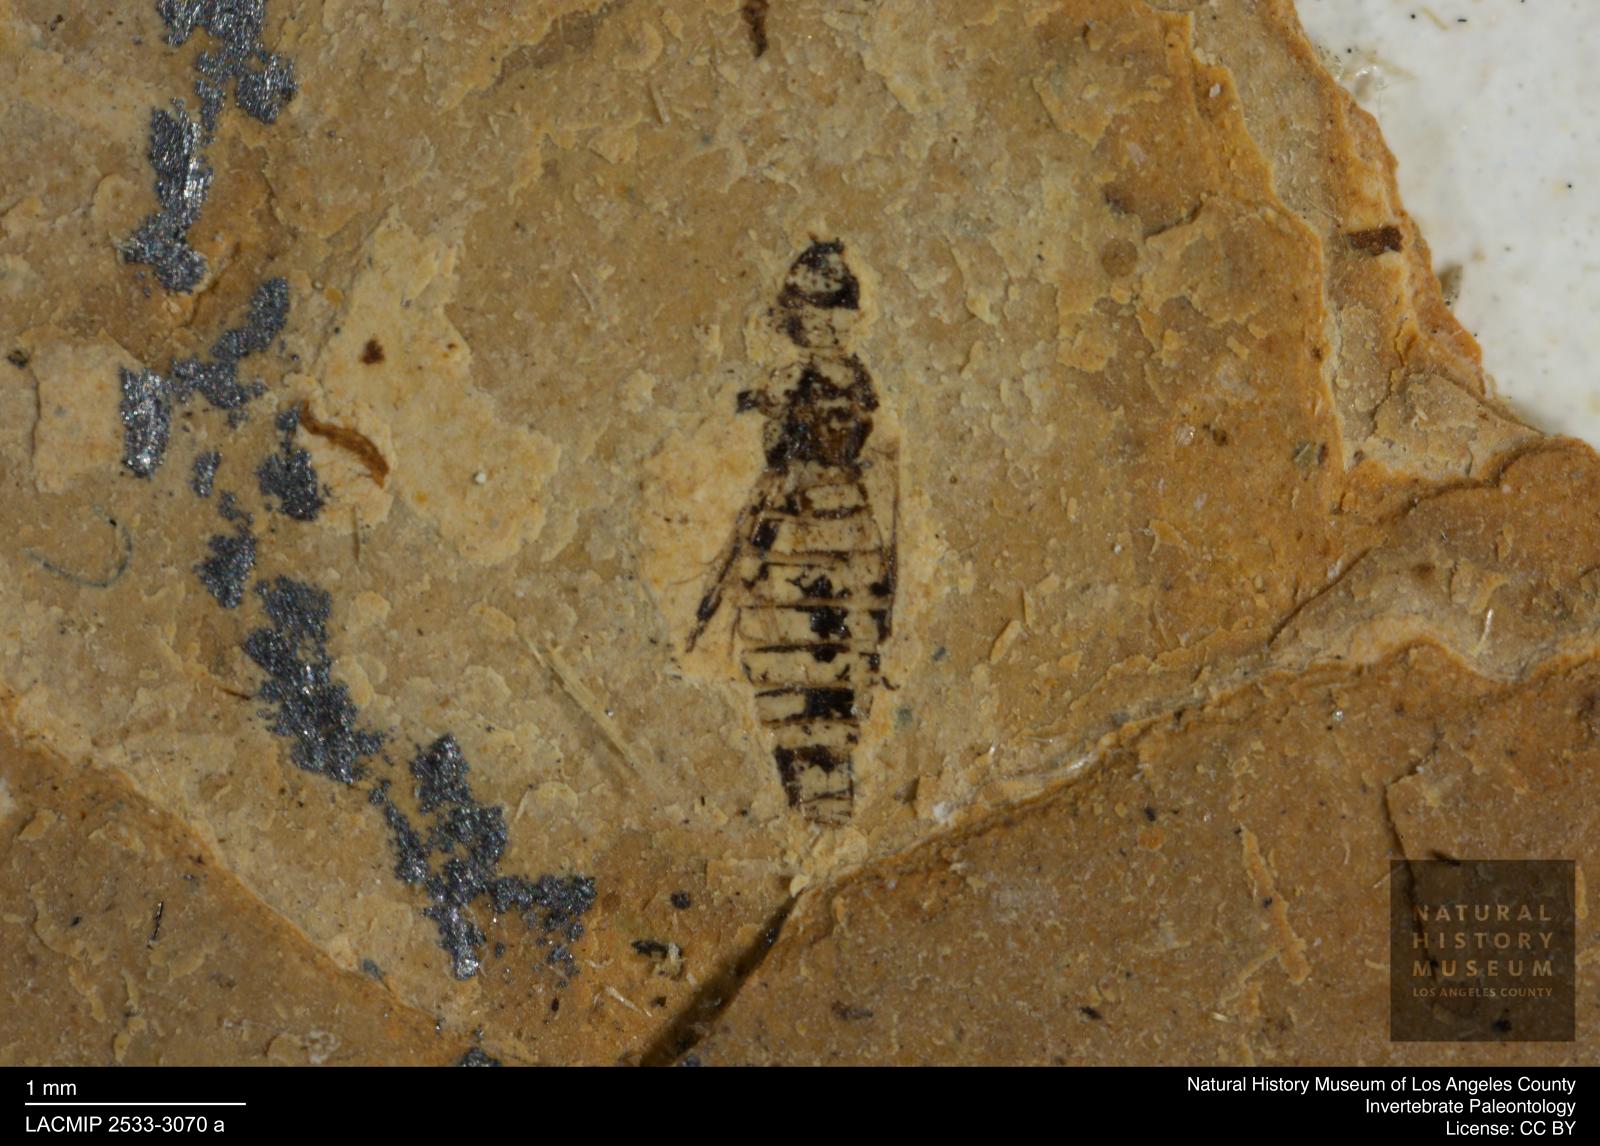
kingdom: Animalia
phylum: Arthropoda
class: Insecta
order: Thysanoptera
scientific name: Thysanoptera
